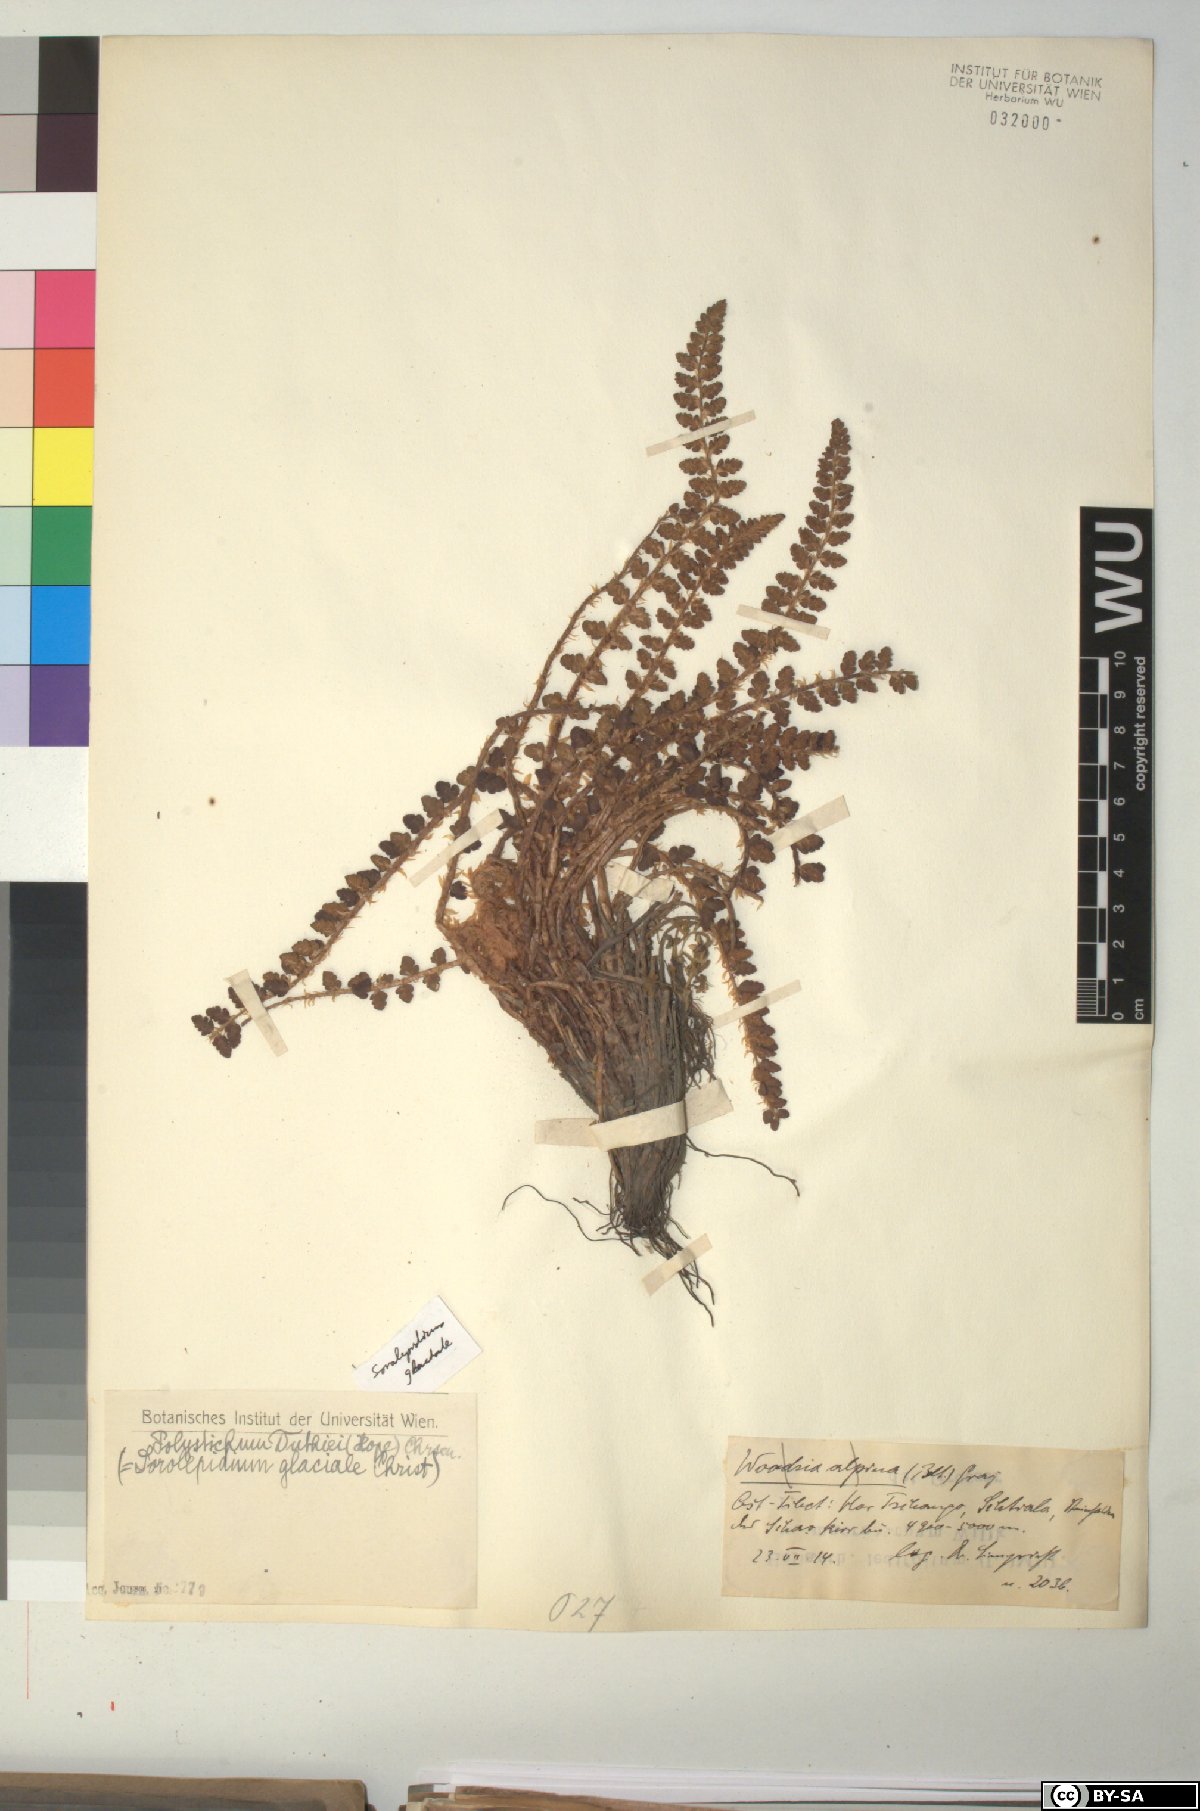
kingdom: Plantae
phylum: Tracheophyta
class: Polypodiopsida
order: Polypodiales
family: Dryopteridaceae
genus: Polystichum
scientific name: Polystichum duthiei
